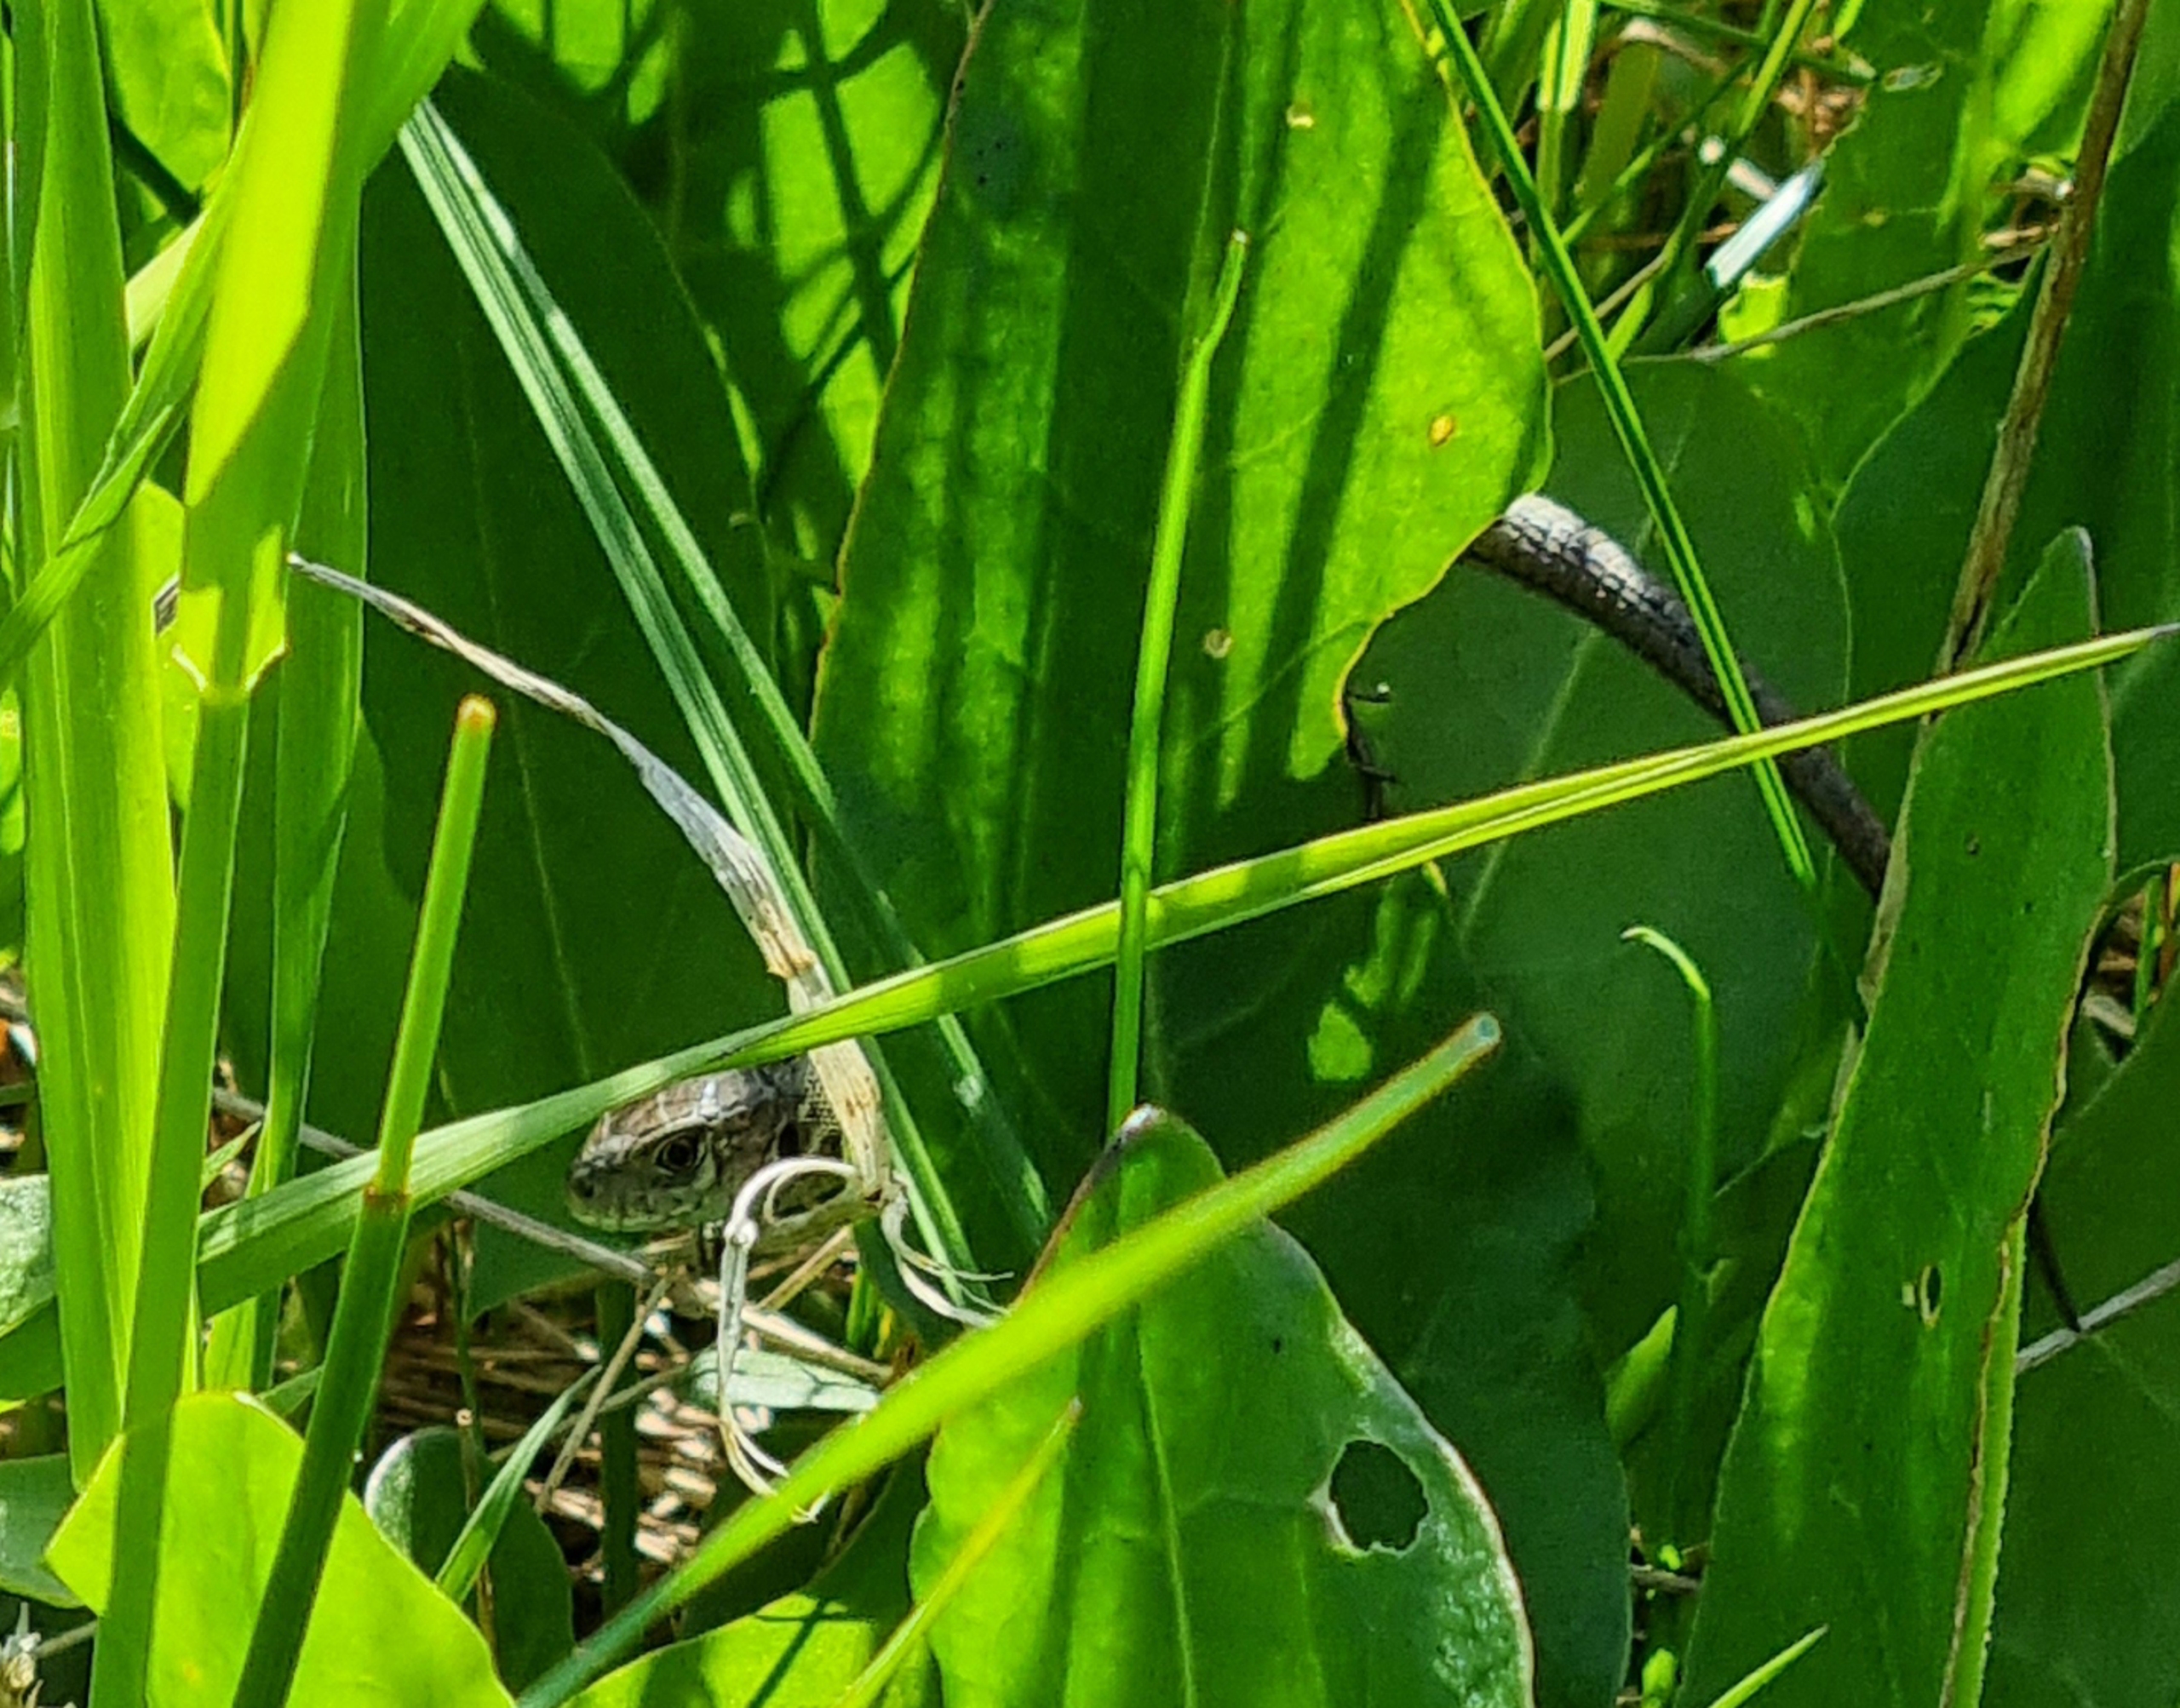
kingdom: Animalia
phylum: Chordata
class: Squamata
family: Lacertidae
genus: Lacerta
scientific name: Lacerta agilis
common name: Markfirben
